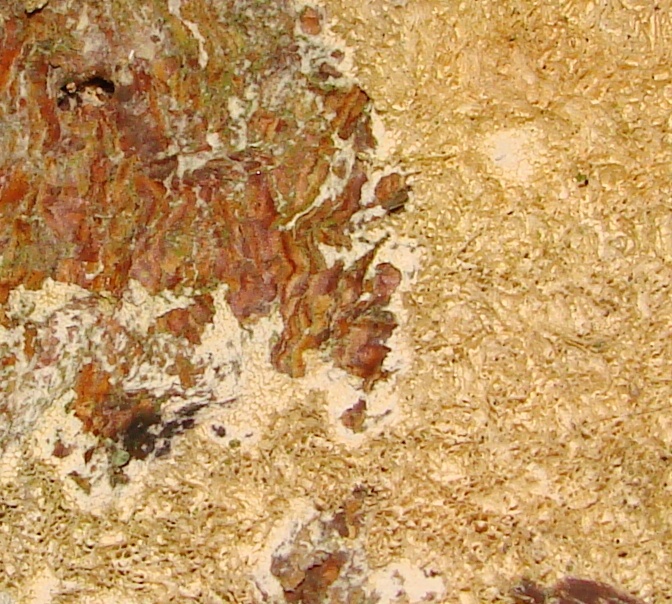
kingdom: Fungi
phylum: Basidiomycota
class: Agaricomycetes
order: Hymenochaetales
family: Schizoporaceae
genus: Schizopora
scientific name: Schizopora paradoxa
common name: hvid tandsvamp
